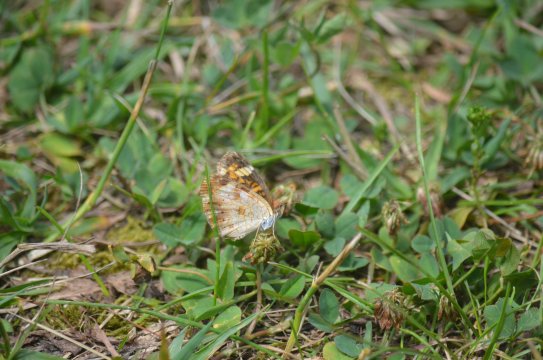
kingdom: Animalia
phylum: Arthropoda
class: Insecta
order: Lepidoptera
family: Nymphalidae
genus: Phyciodes
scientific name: Phyciodes tharos
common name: Northern Crescent
